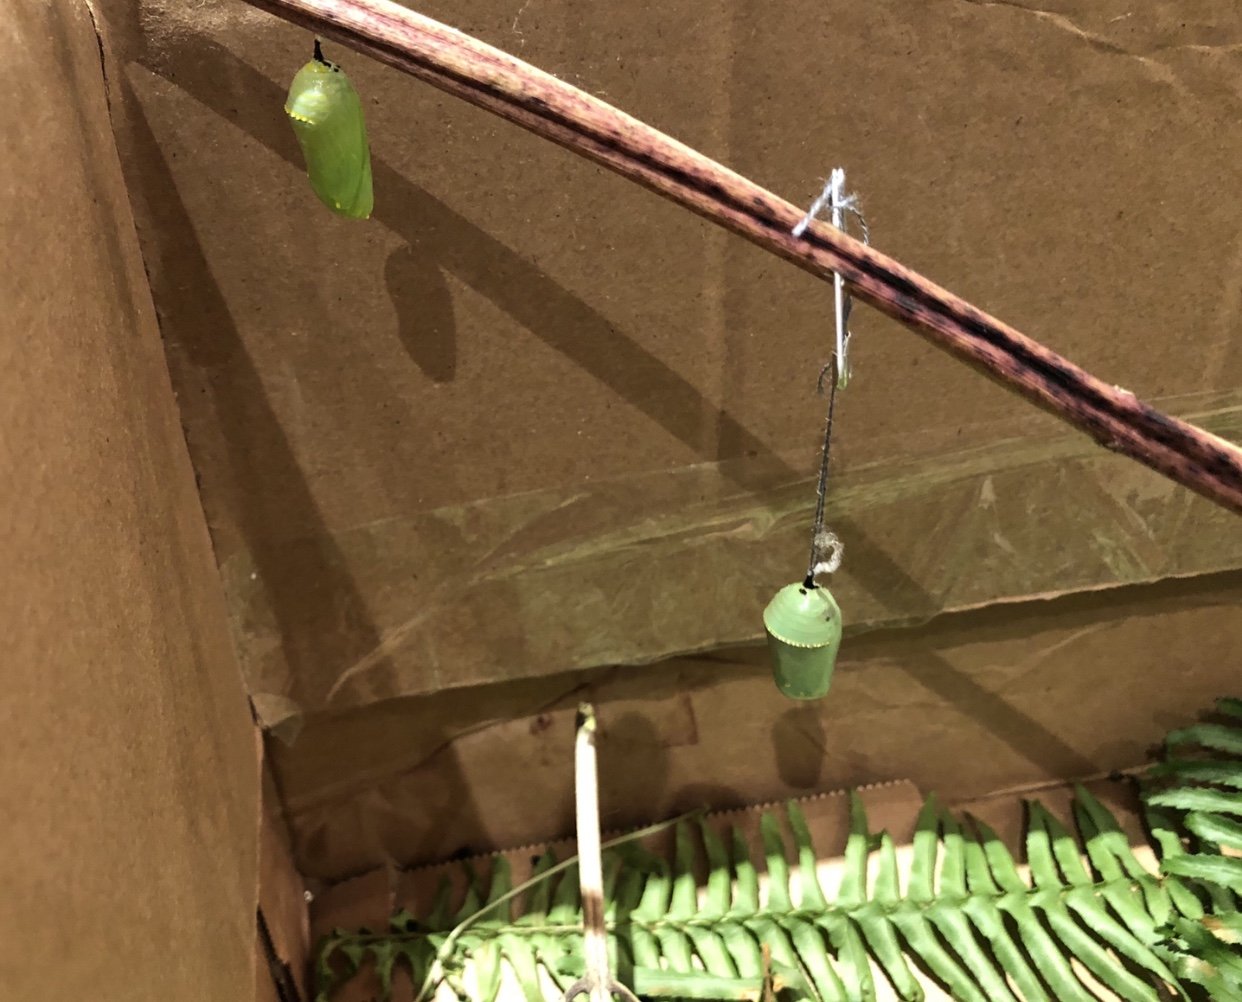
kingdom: Animalia
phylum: Arthropoda
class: Insecta
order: Lepidoptera
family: Nymphalidae
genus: Danaus
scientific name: Danaus plexippus
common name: Monarch
